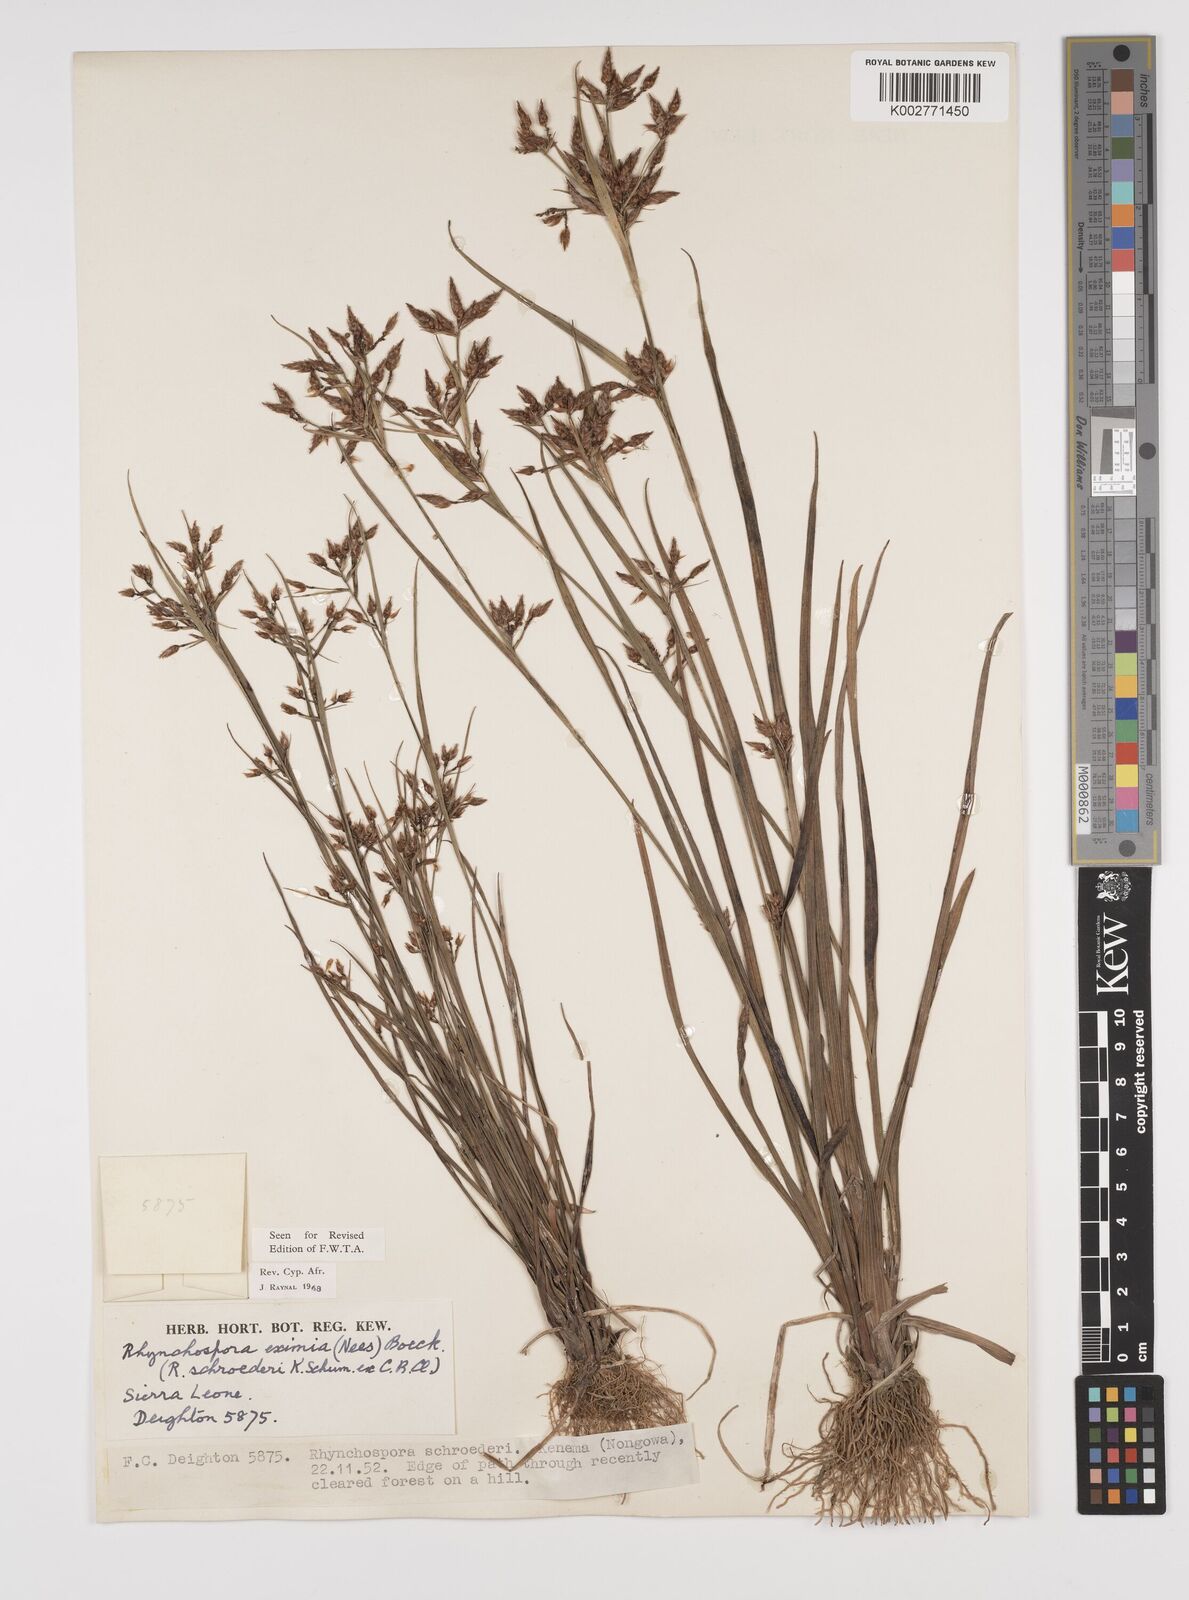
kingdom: Plantae
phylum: Tracheophyta
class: Liliopsida
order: Poales
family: Cyperaceae
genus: Rhynchospora
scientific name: Rhynchospora eximia
